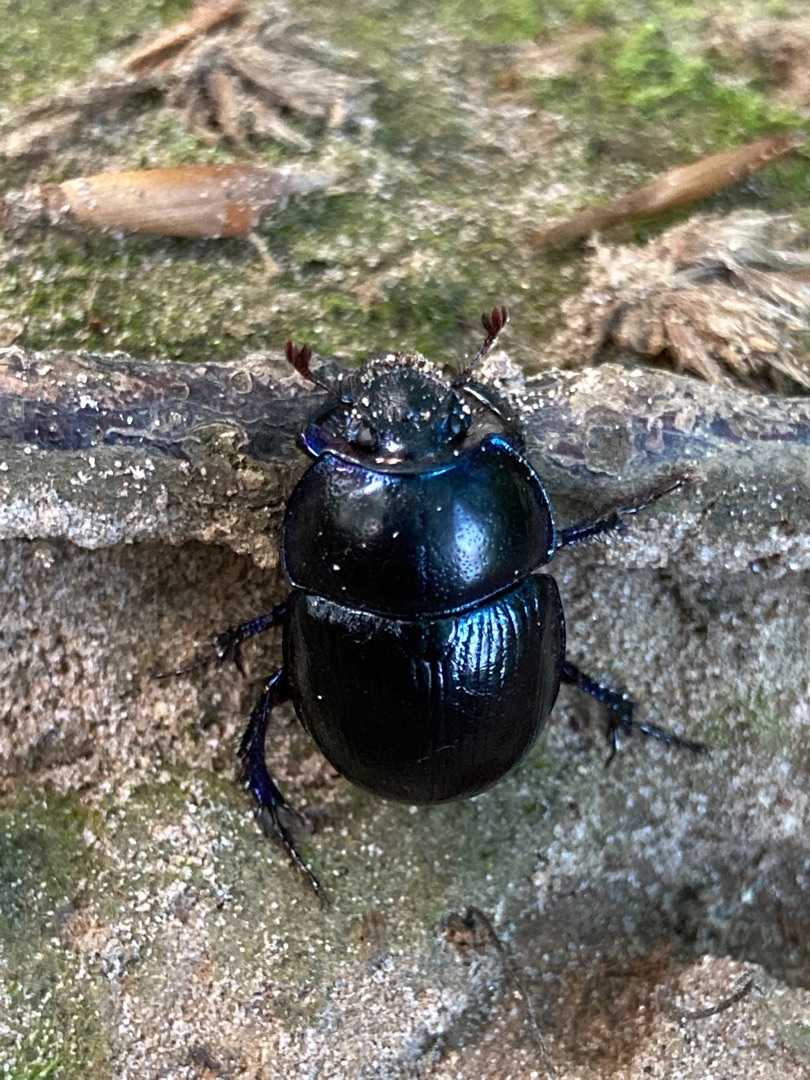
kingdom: Animalia
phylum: Arthropoda
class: Insecta
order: Coleoptera
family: Geotrupidae
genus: Anoplotrupes
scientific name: Anoplotrupes stercorosus
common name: Skovskarnbasse
